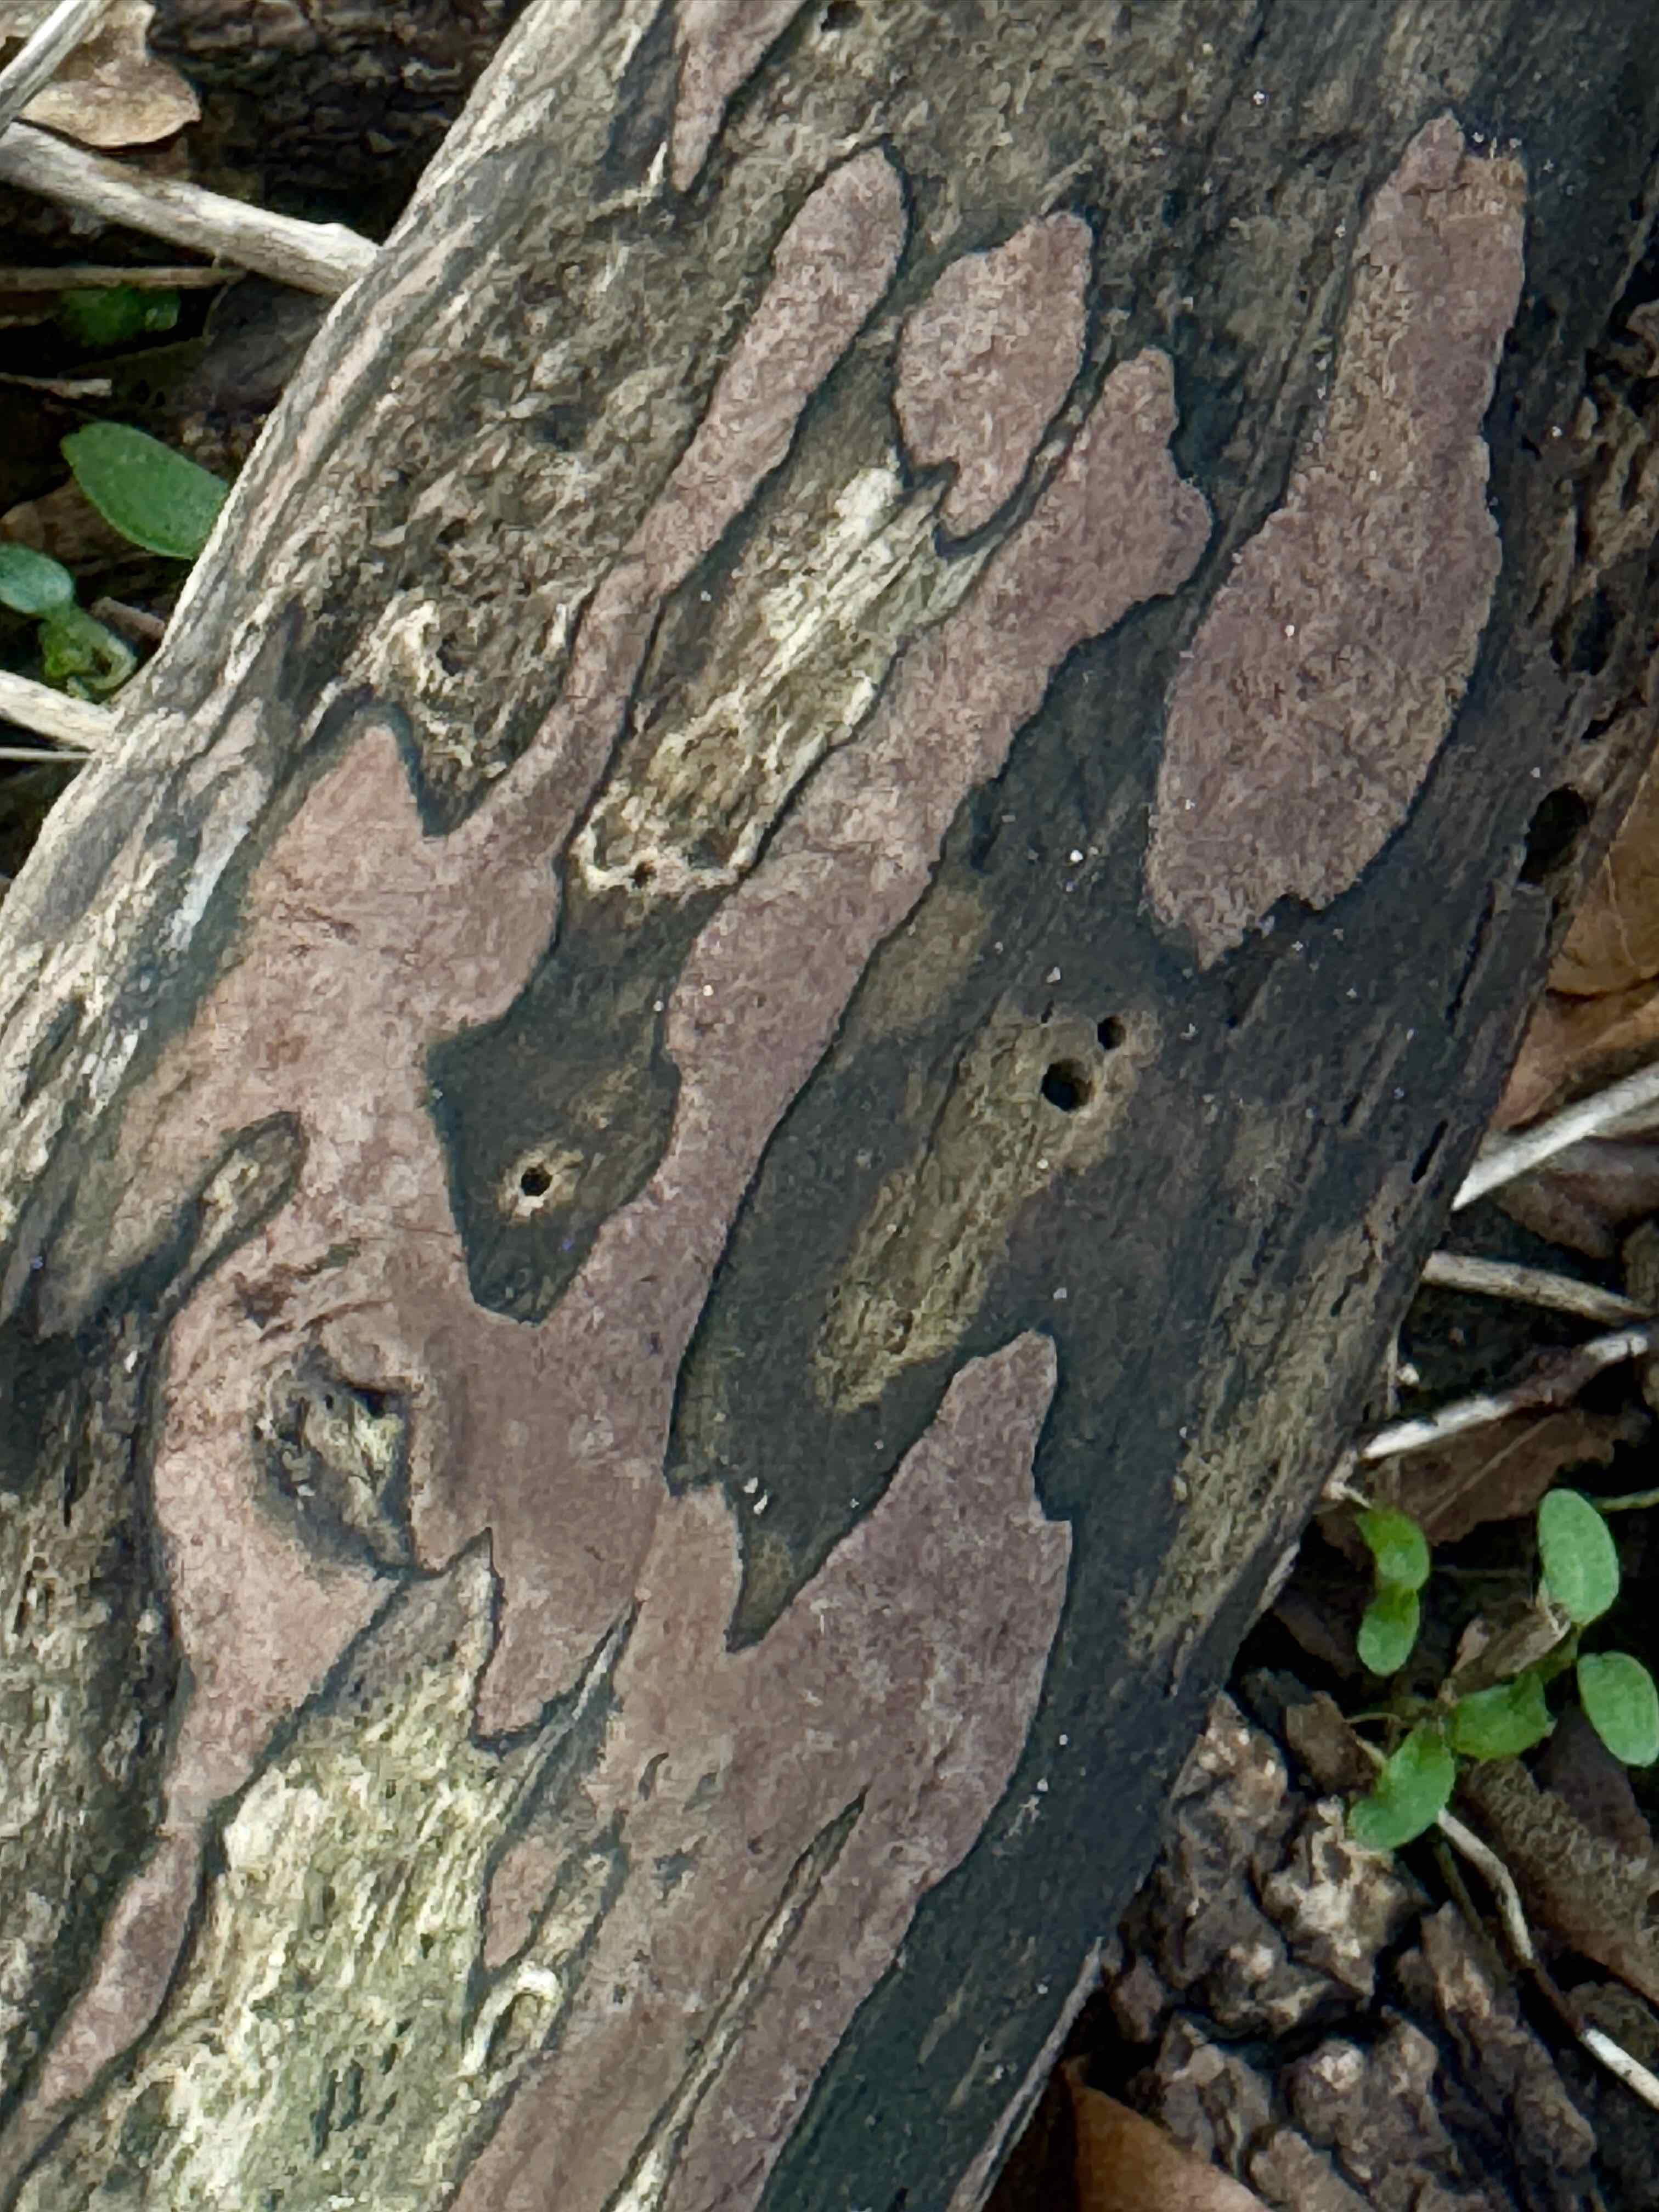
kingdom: Fungi
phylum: Ascomycota
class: Sordariomycetes
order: Xylariales
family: Hypoxylaceae
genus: Hypoxylon
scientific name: Hypoxylon petriniae
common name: nedsænket kulbær
